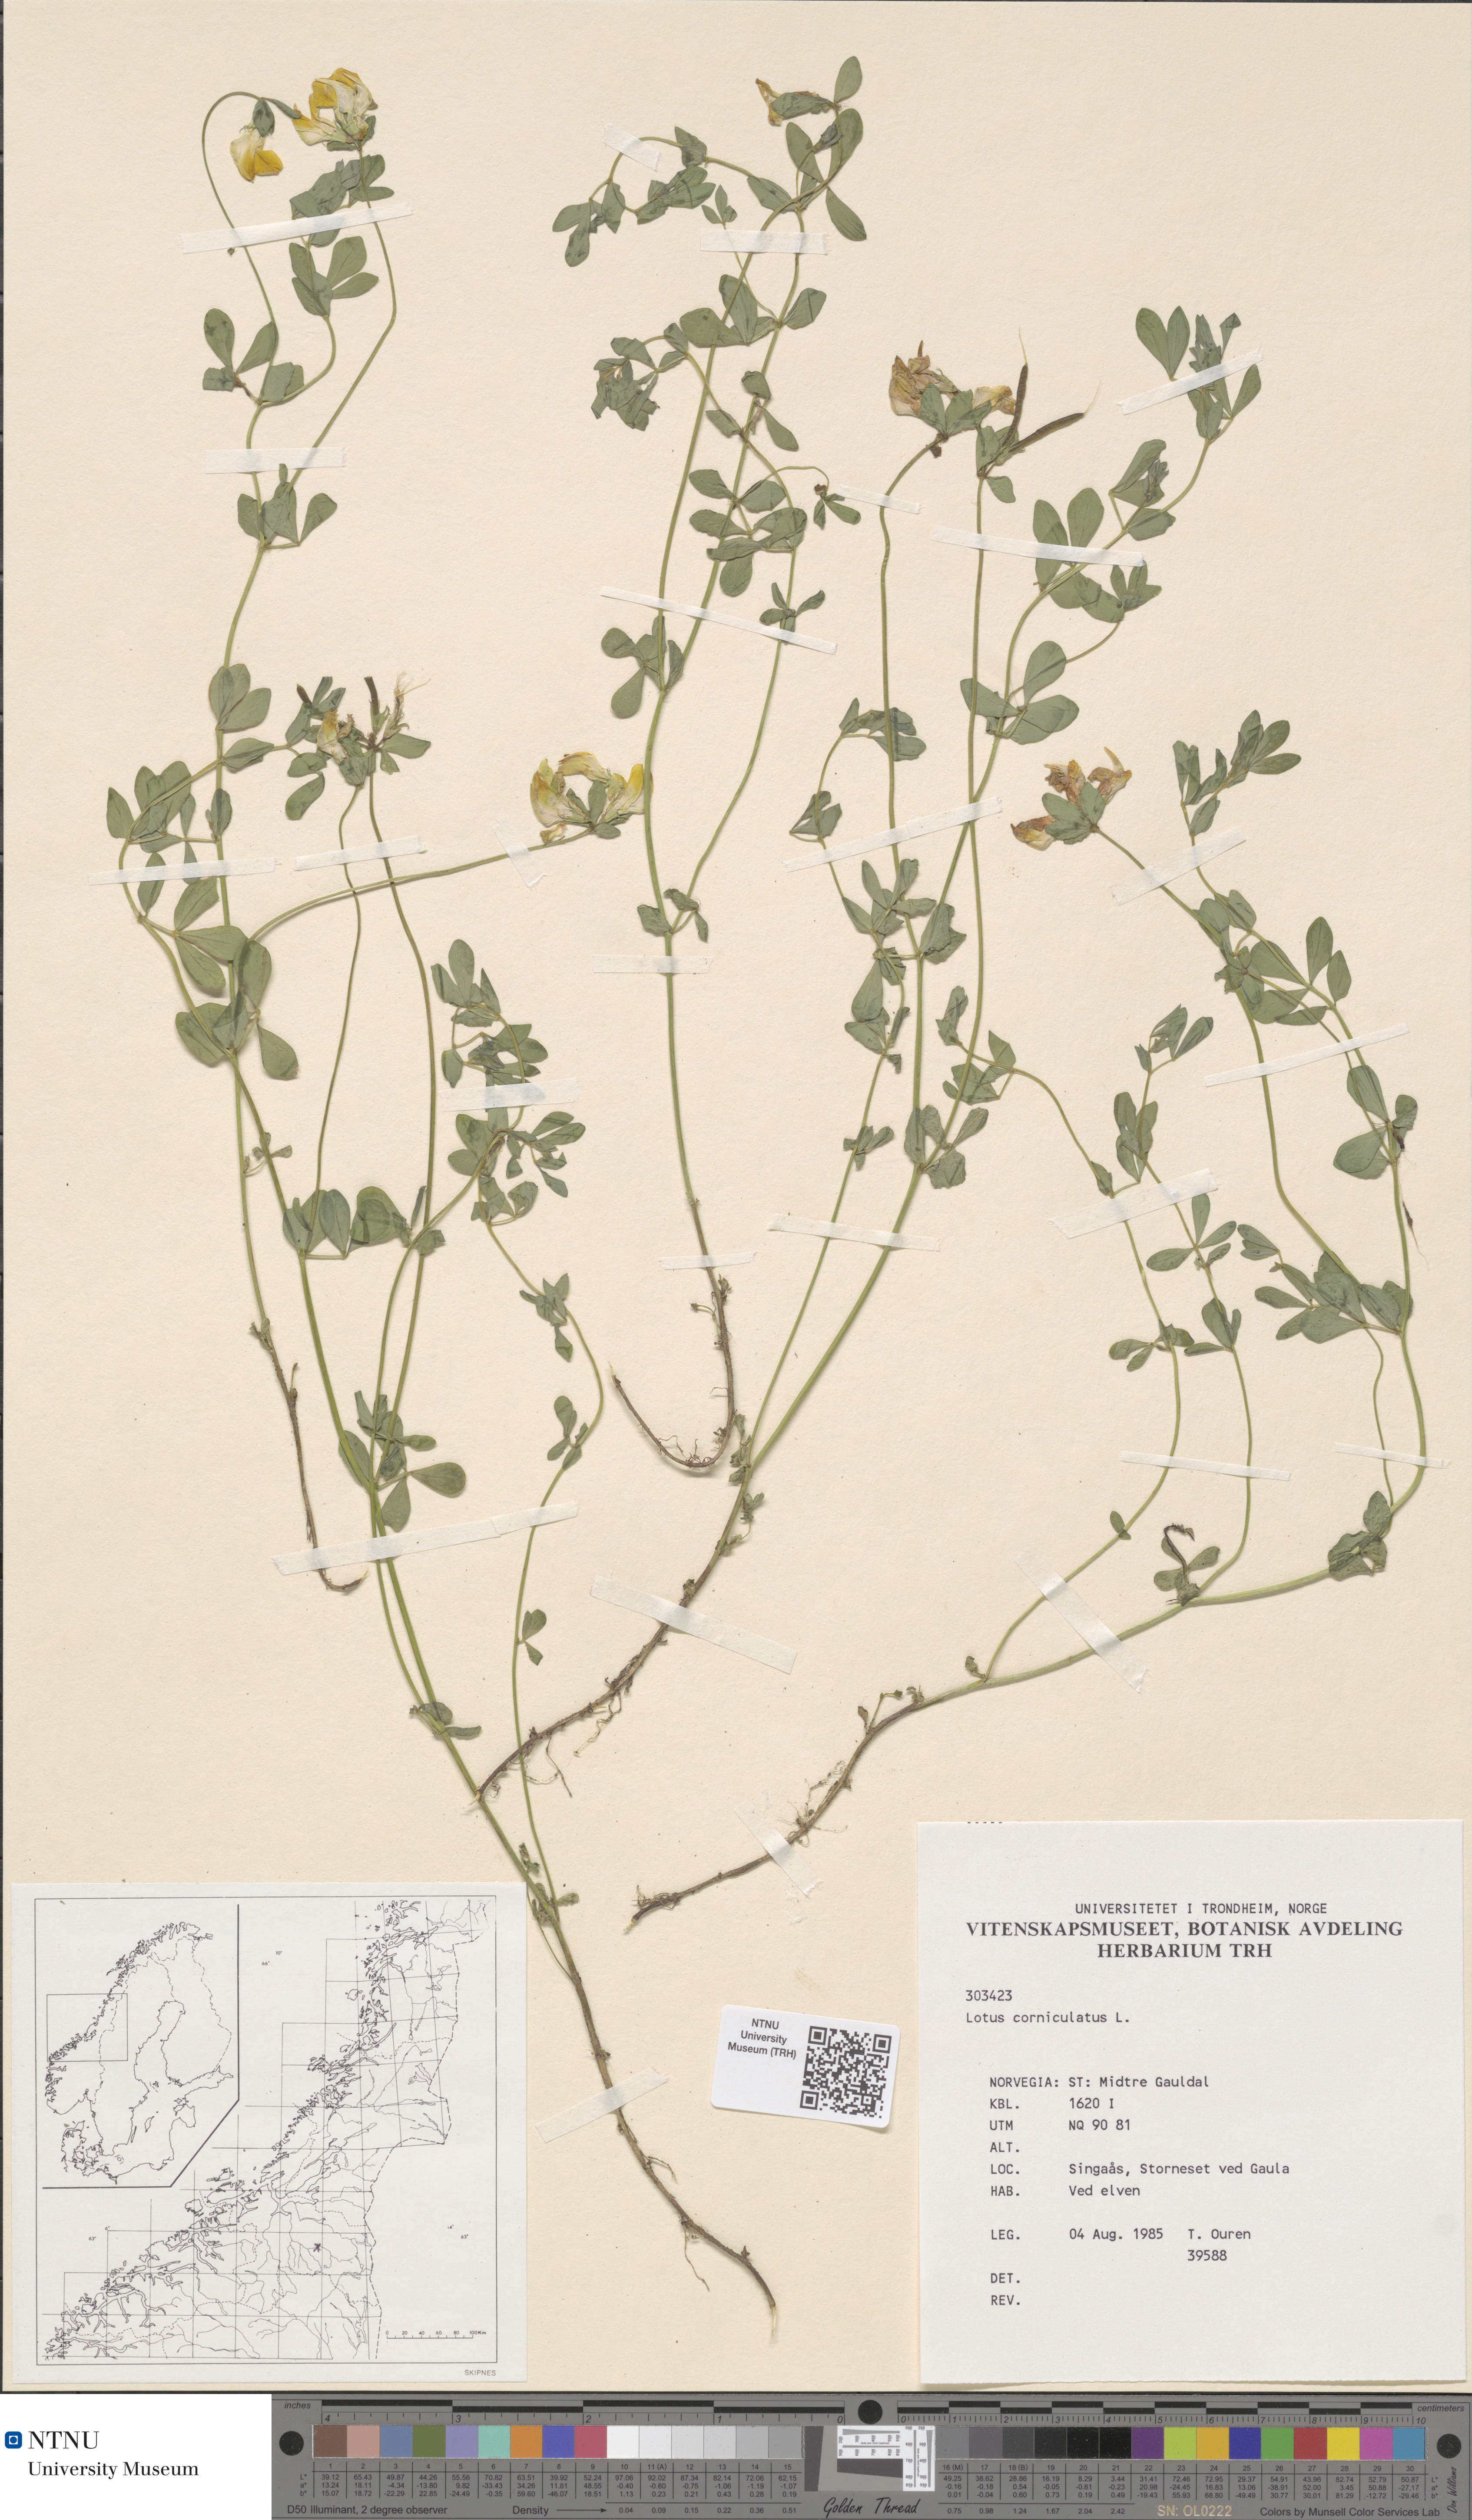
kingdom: Plantae
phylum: Tracheophyta
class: Magnoliopsida
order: Fabales
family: Fabaceae
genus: Lotus
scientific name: Lotus corniculatus
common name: Common bird's-foot-trefoil
